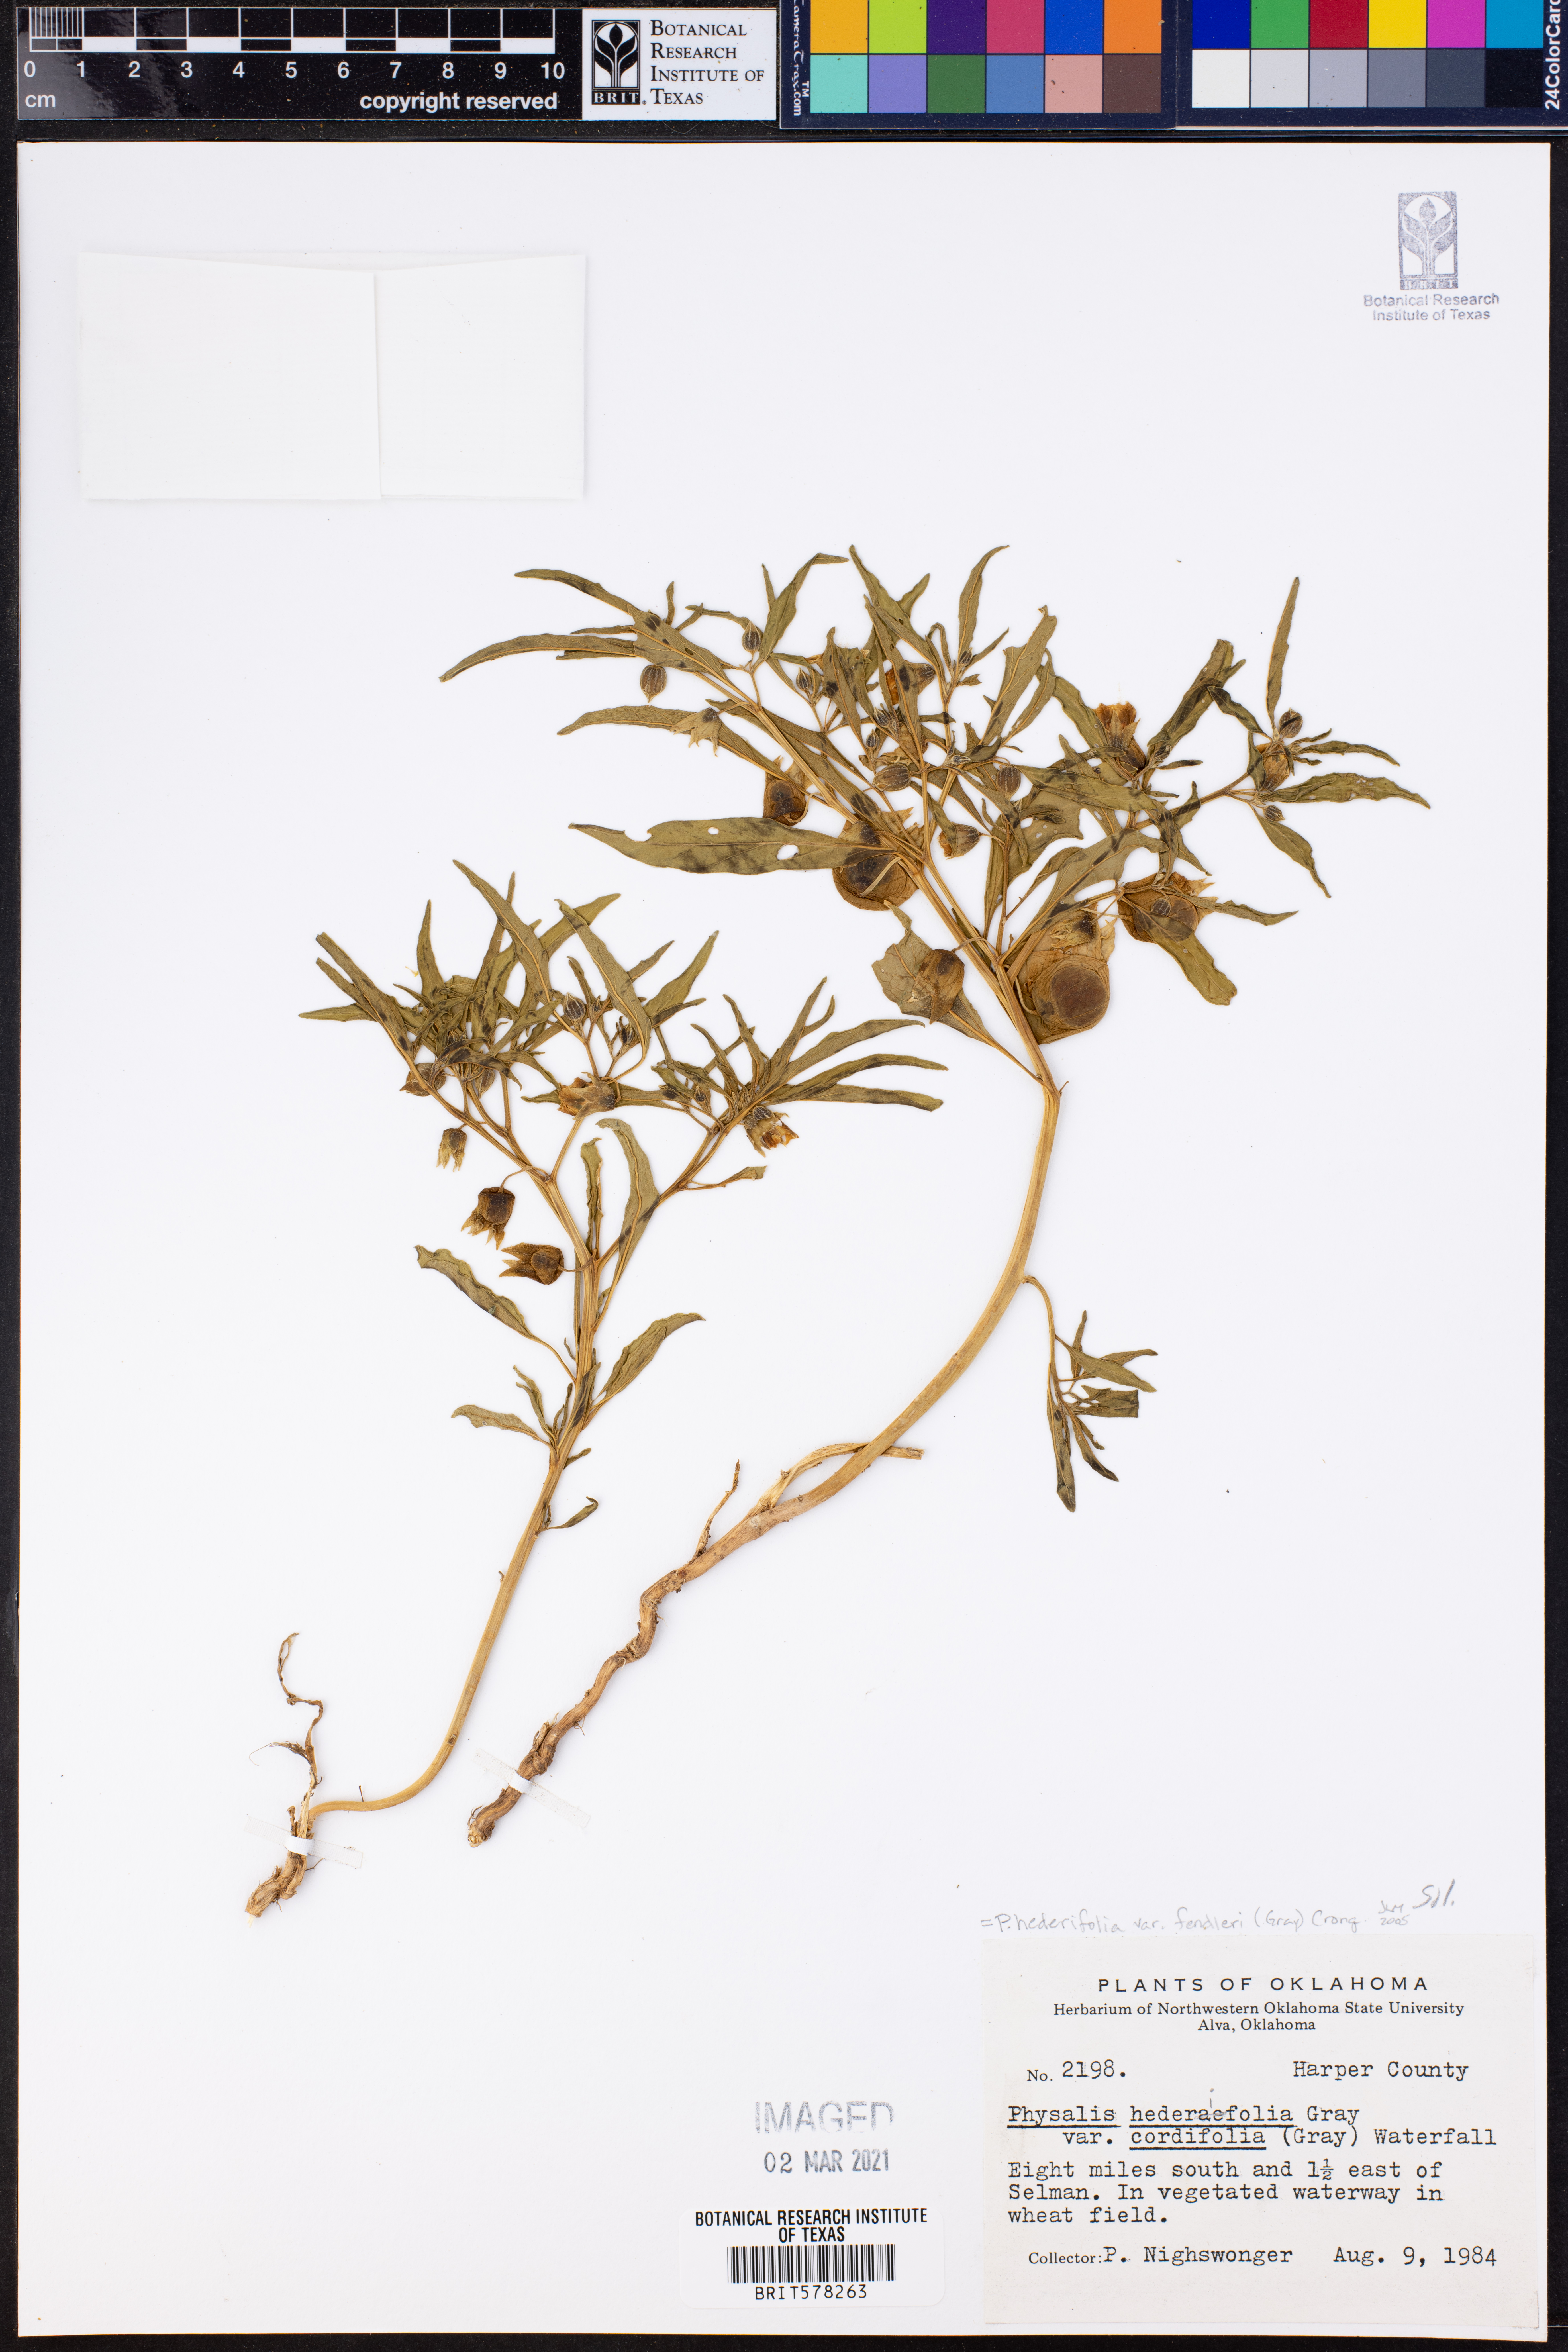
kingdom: Plantae
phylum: Tracheophyta
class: Magnoliopsida
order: Solanales
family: Solanaceae
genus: Physalis
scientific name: Physalis fendleri
